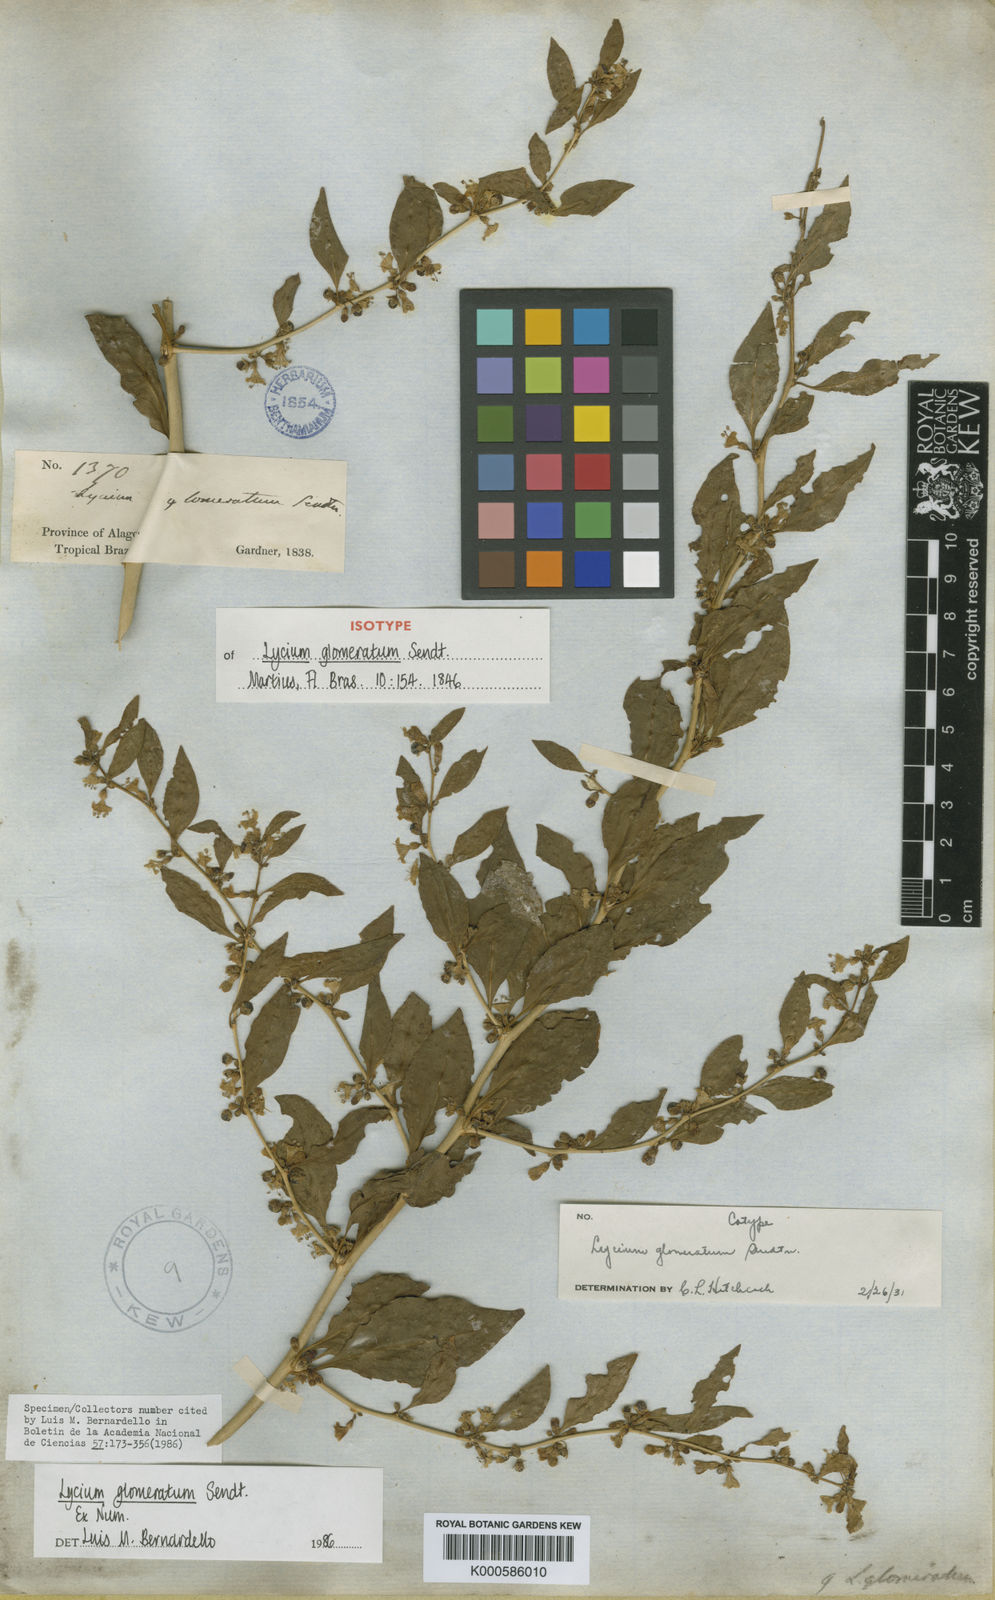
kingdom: Plantae
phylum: Tracheophyta
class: Magnoliopsida
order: Solanales
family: Solanaceae
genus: Lycium
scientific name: Lycium glomeratum
